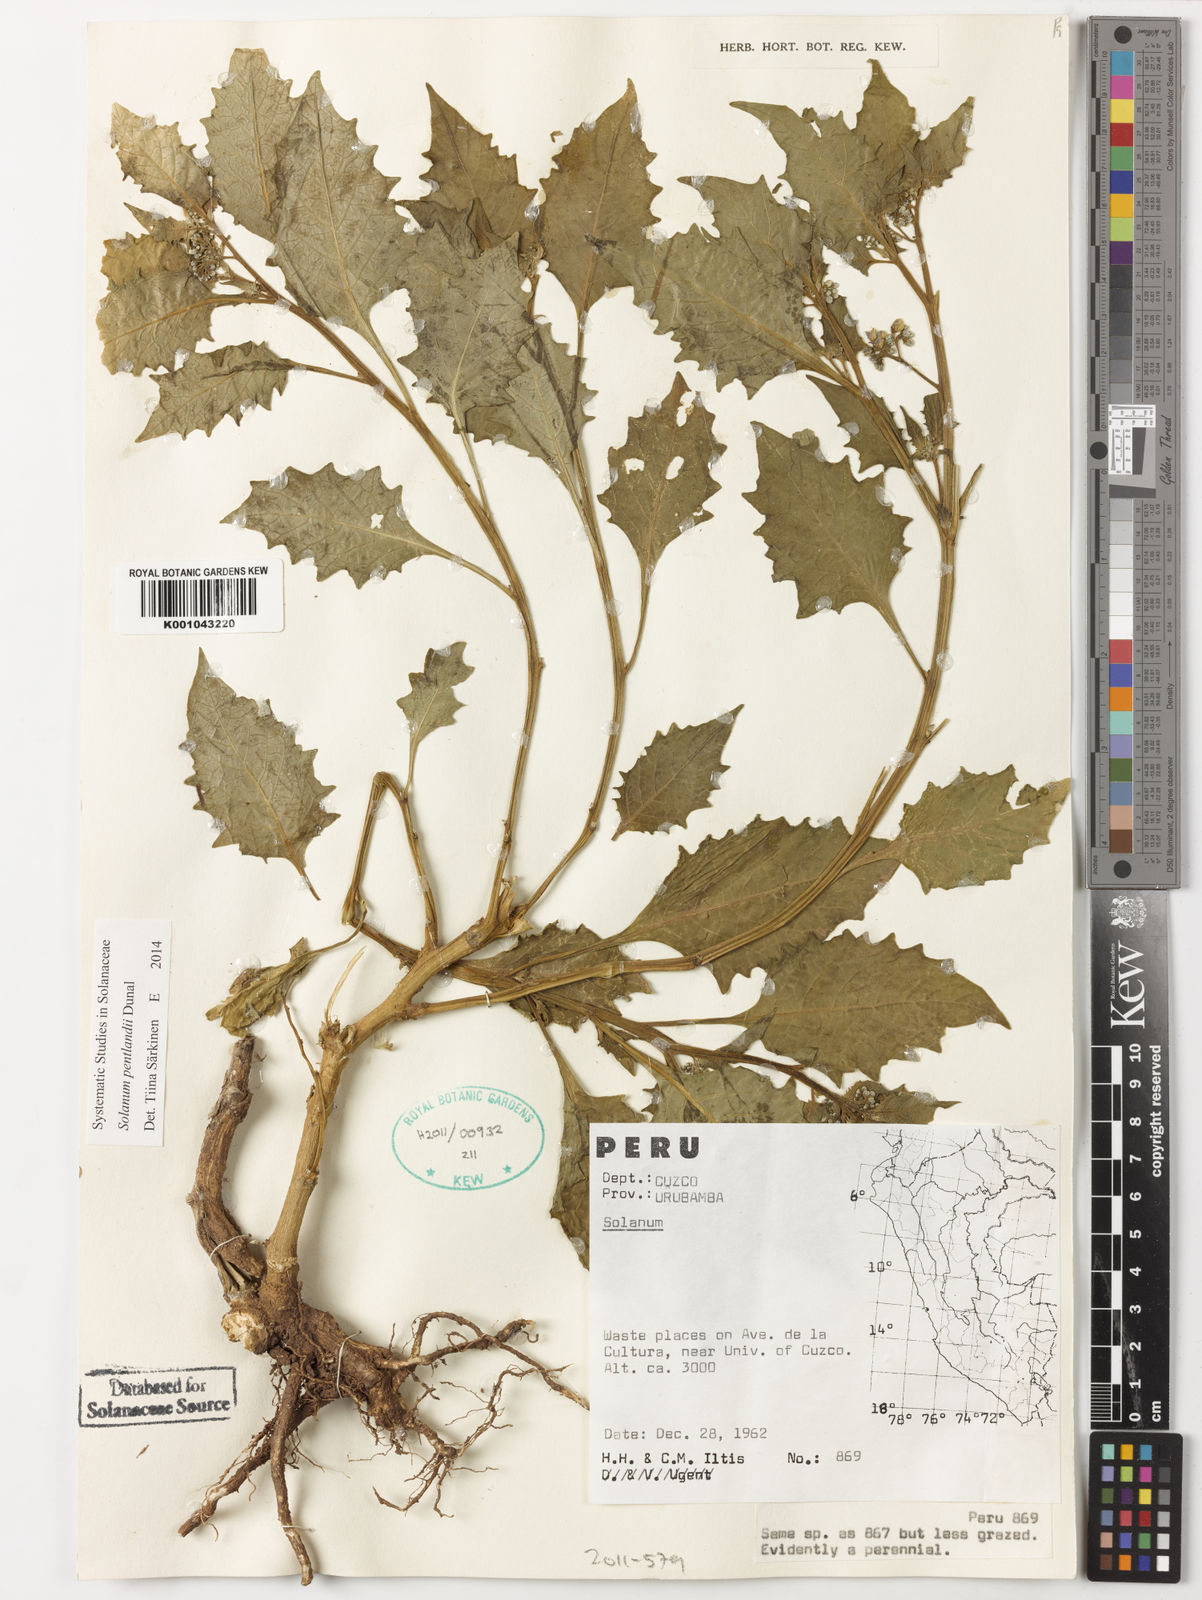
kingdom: Plantae
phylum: Tracheophyta
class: Magnoliopsida
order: Solanales
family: Solanaceae
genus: Solanum
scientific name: Solanum pentlandii
